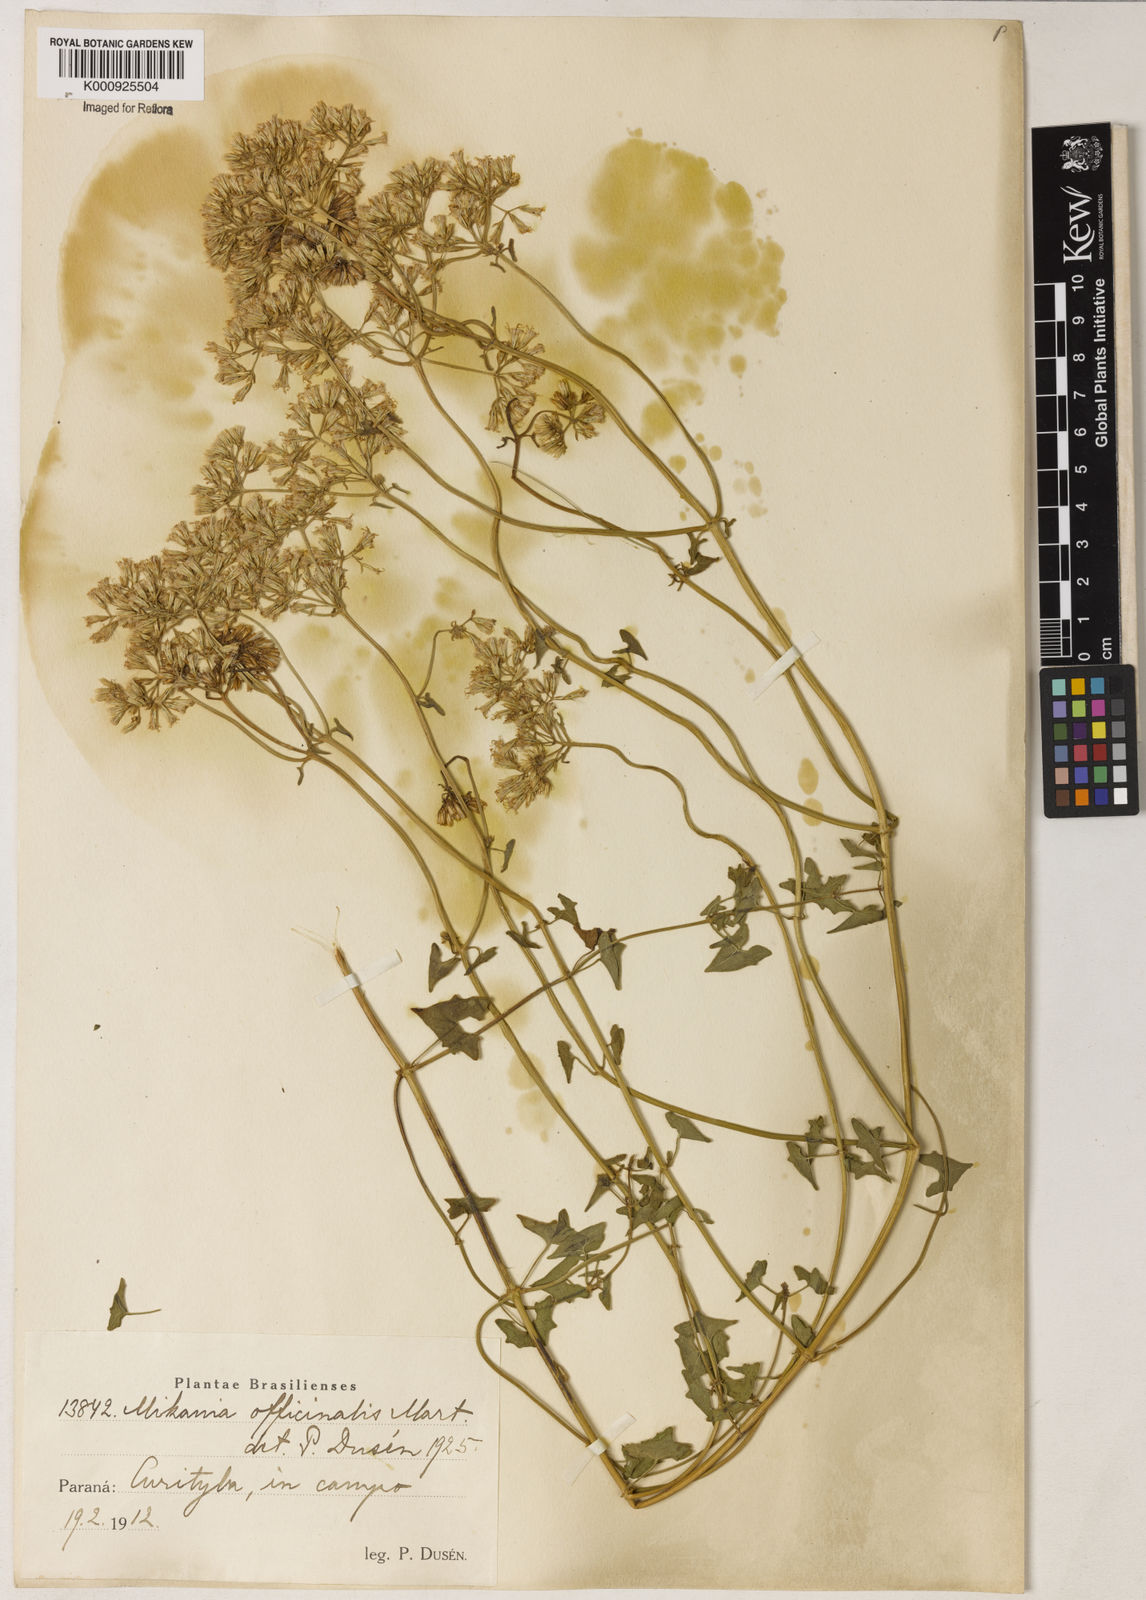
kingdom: Plantae
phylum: Tracheophyta
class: Magnoliopsida
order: Asterales
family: Asteraceae
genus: Mikania
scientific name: Mikania officinalis
